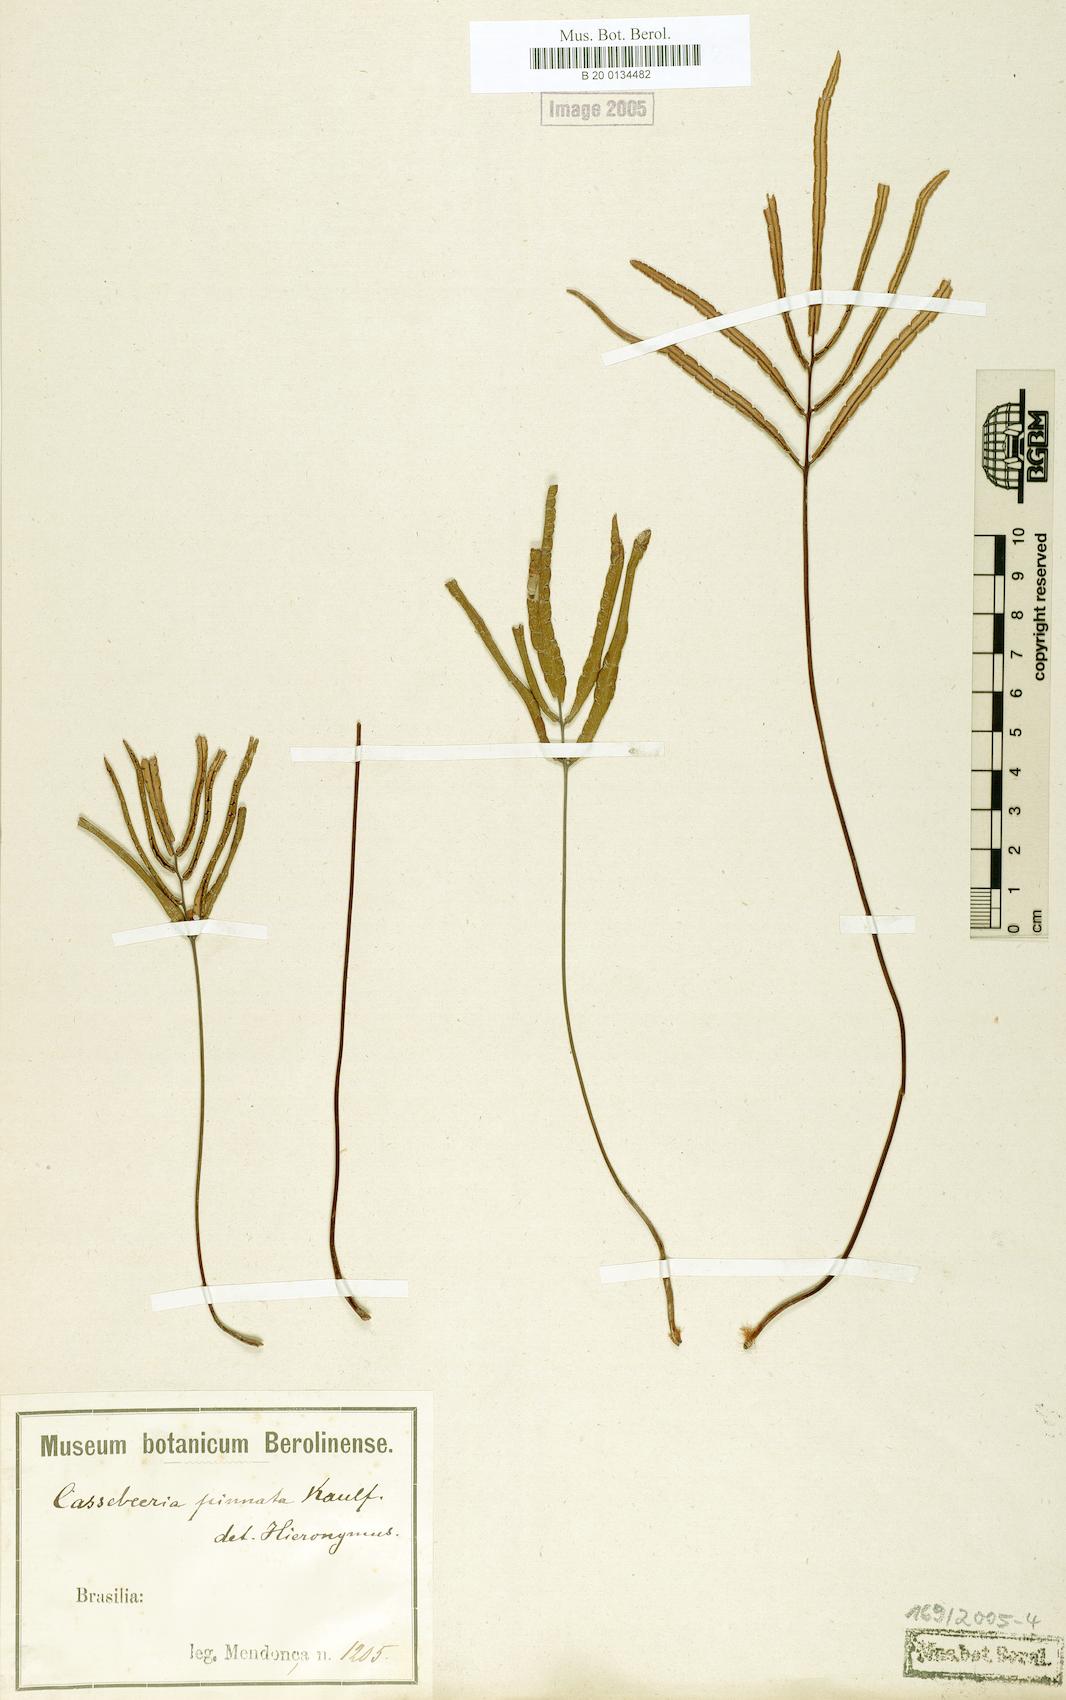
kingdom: Plantae
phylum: Tracheophyta
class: Polypodiopsida
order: Polypodiales
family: Pteridaceae
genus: Ormopteris
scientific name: Ormopteris pinnata
